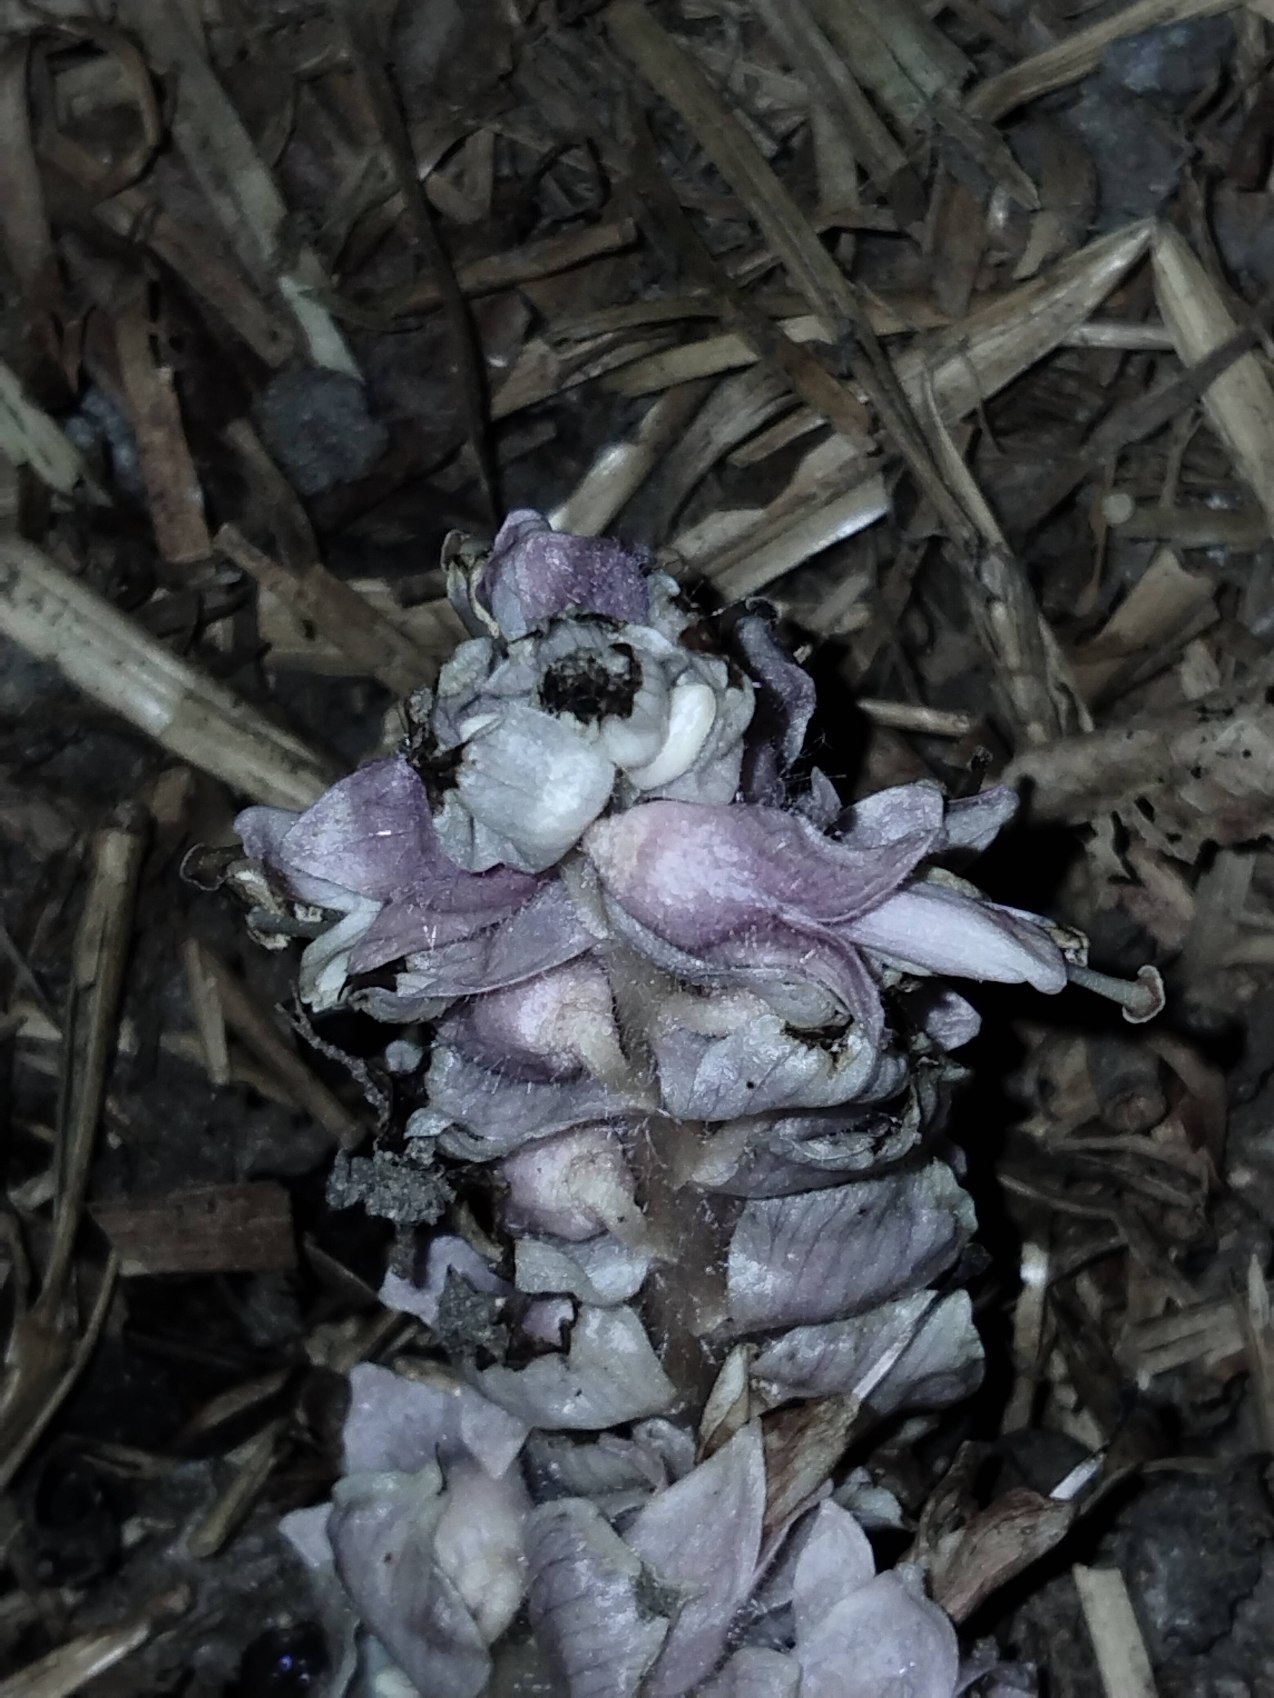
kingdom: Plantae
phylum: Tracheophyta
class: Magnoliopsida
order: Lamiales
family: Orobanchaceae
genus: Lathraea
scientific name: Lathraea squamaria
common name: Skælrod
